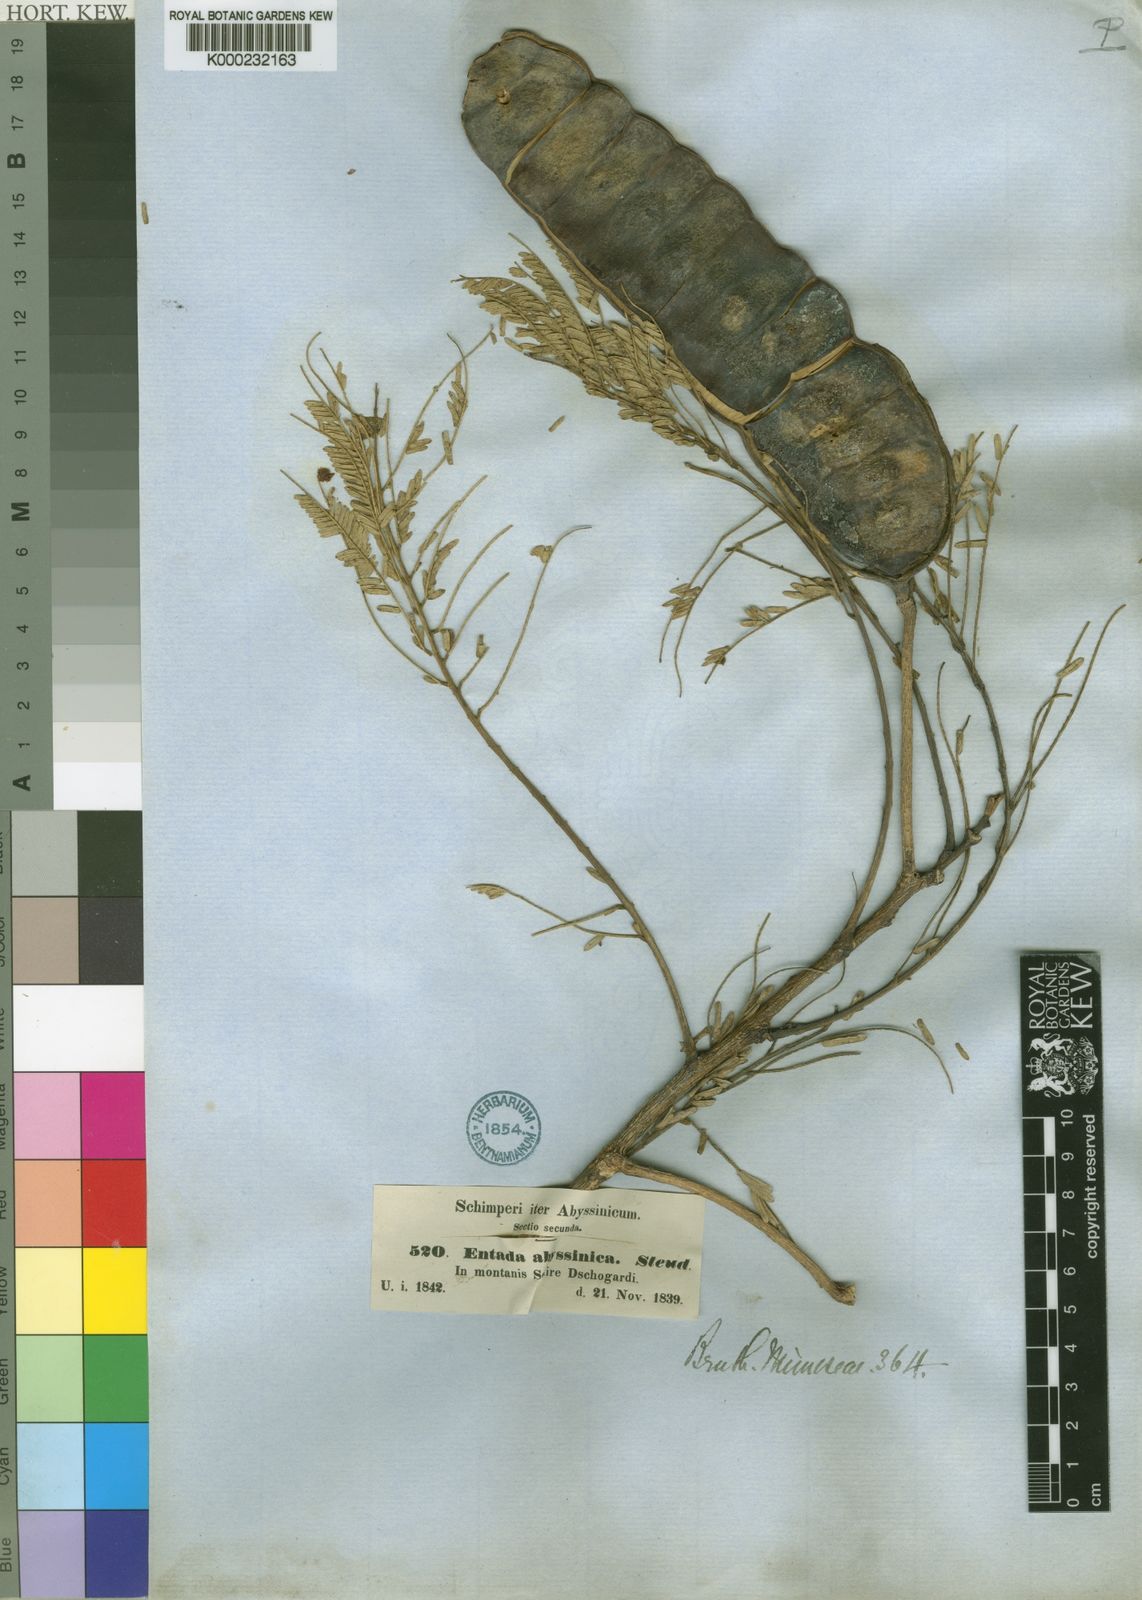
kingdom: Plantae
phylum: Tracheophyta
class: Magnoliopsida
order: Fabales
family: Fabaceae
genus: Entada
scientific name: Entada abyssinica
